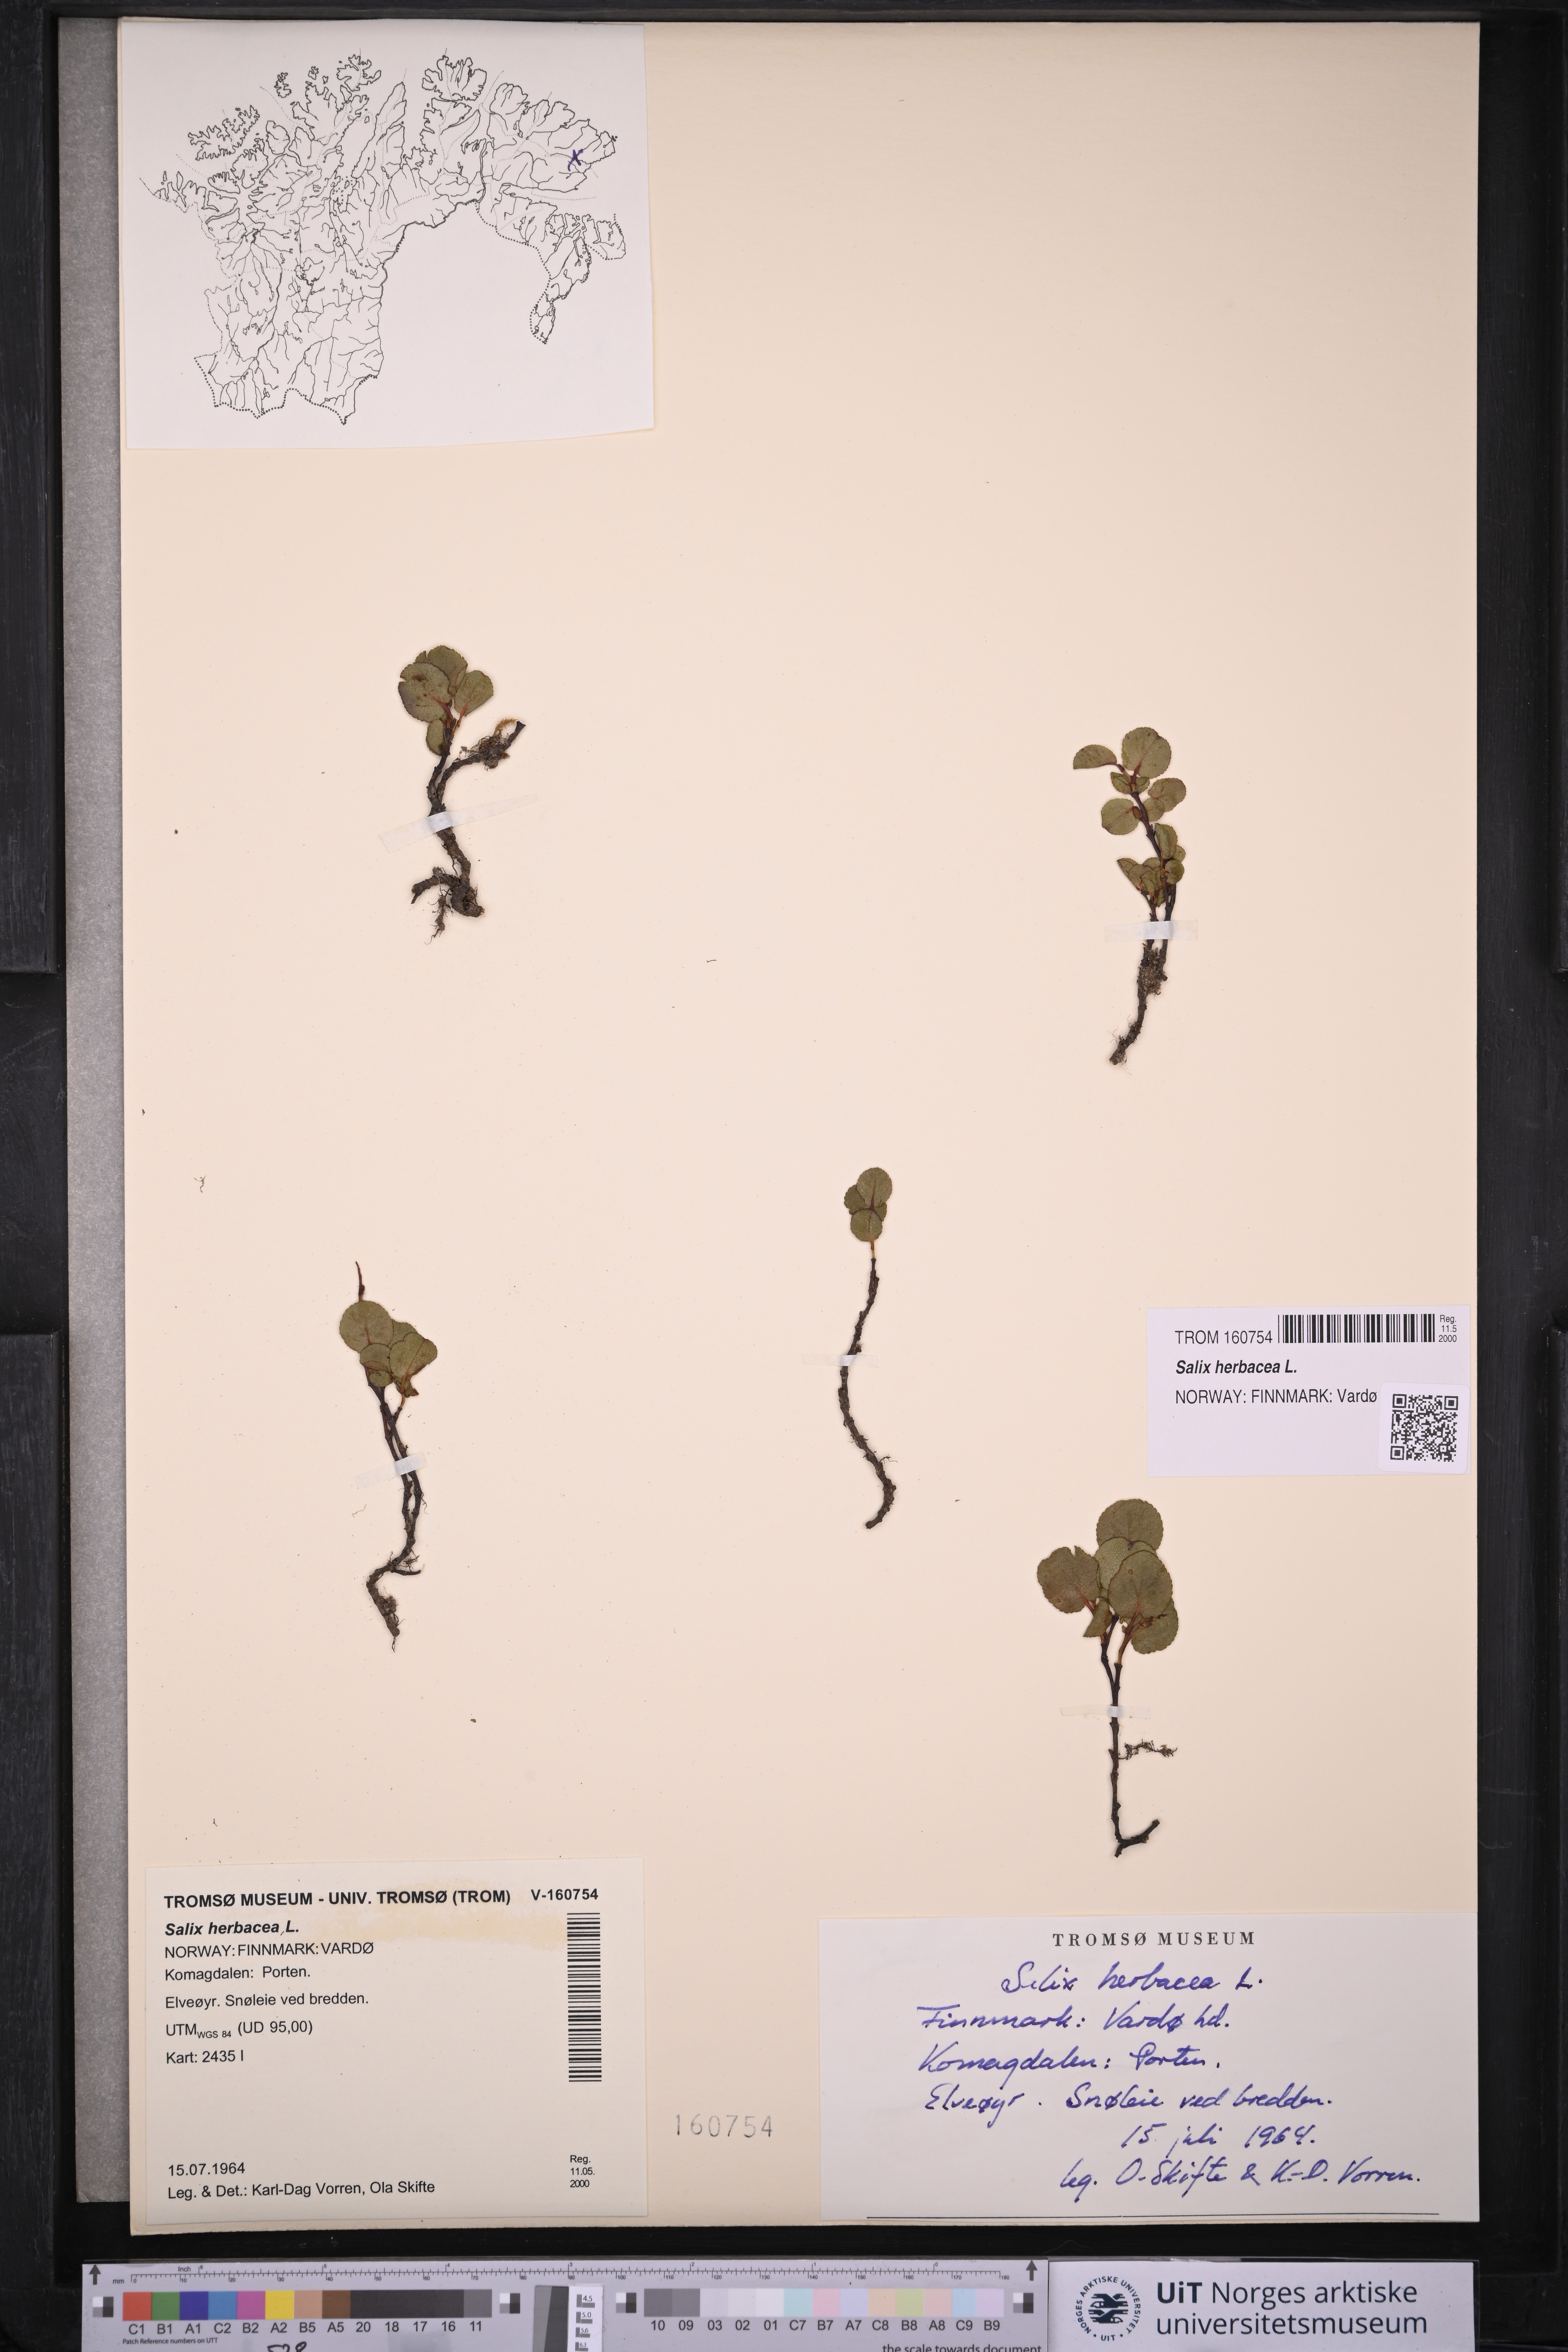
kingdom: Plantae
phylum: Tracheophyta
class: Magnoliopsida
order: Malpighiales
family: Salicaceae
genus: Salix
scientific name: Salix herbacea
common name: Dwarf willow
